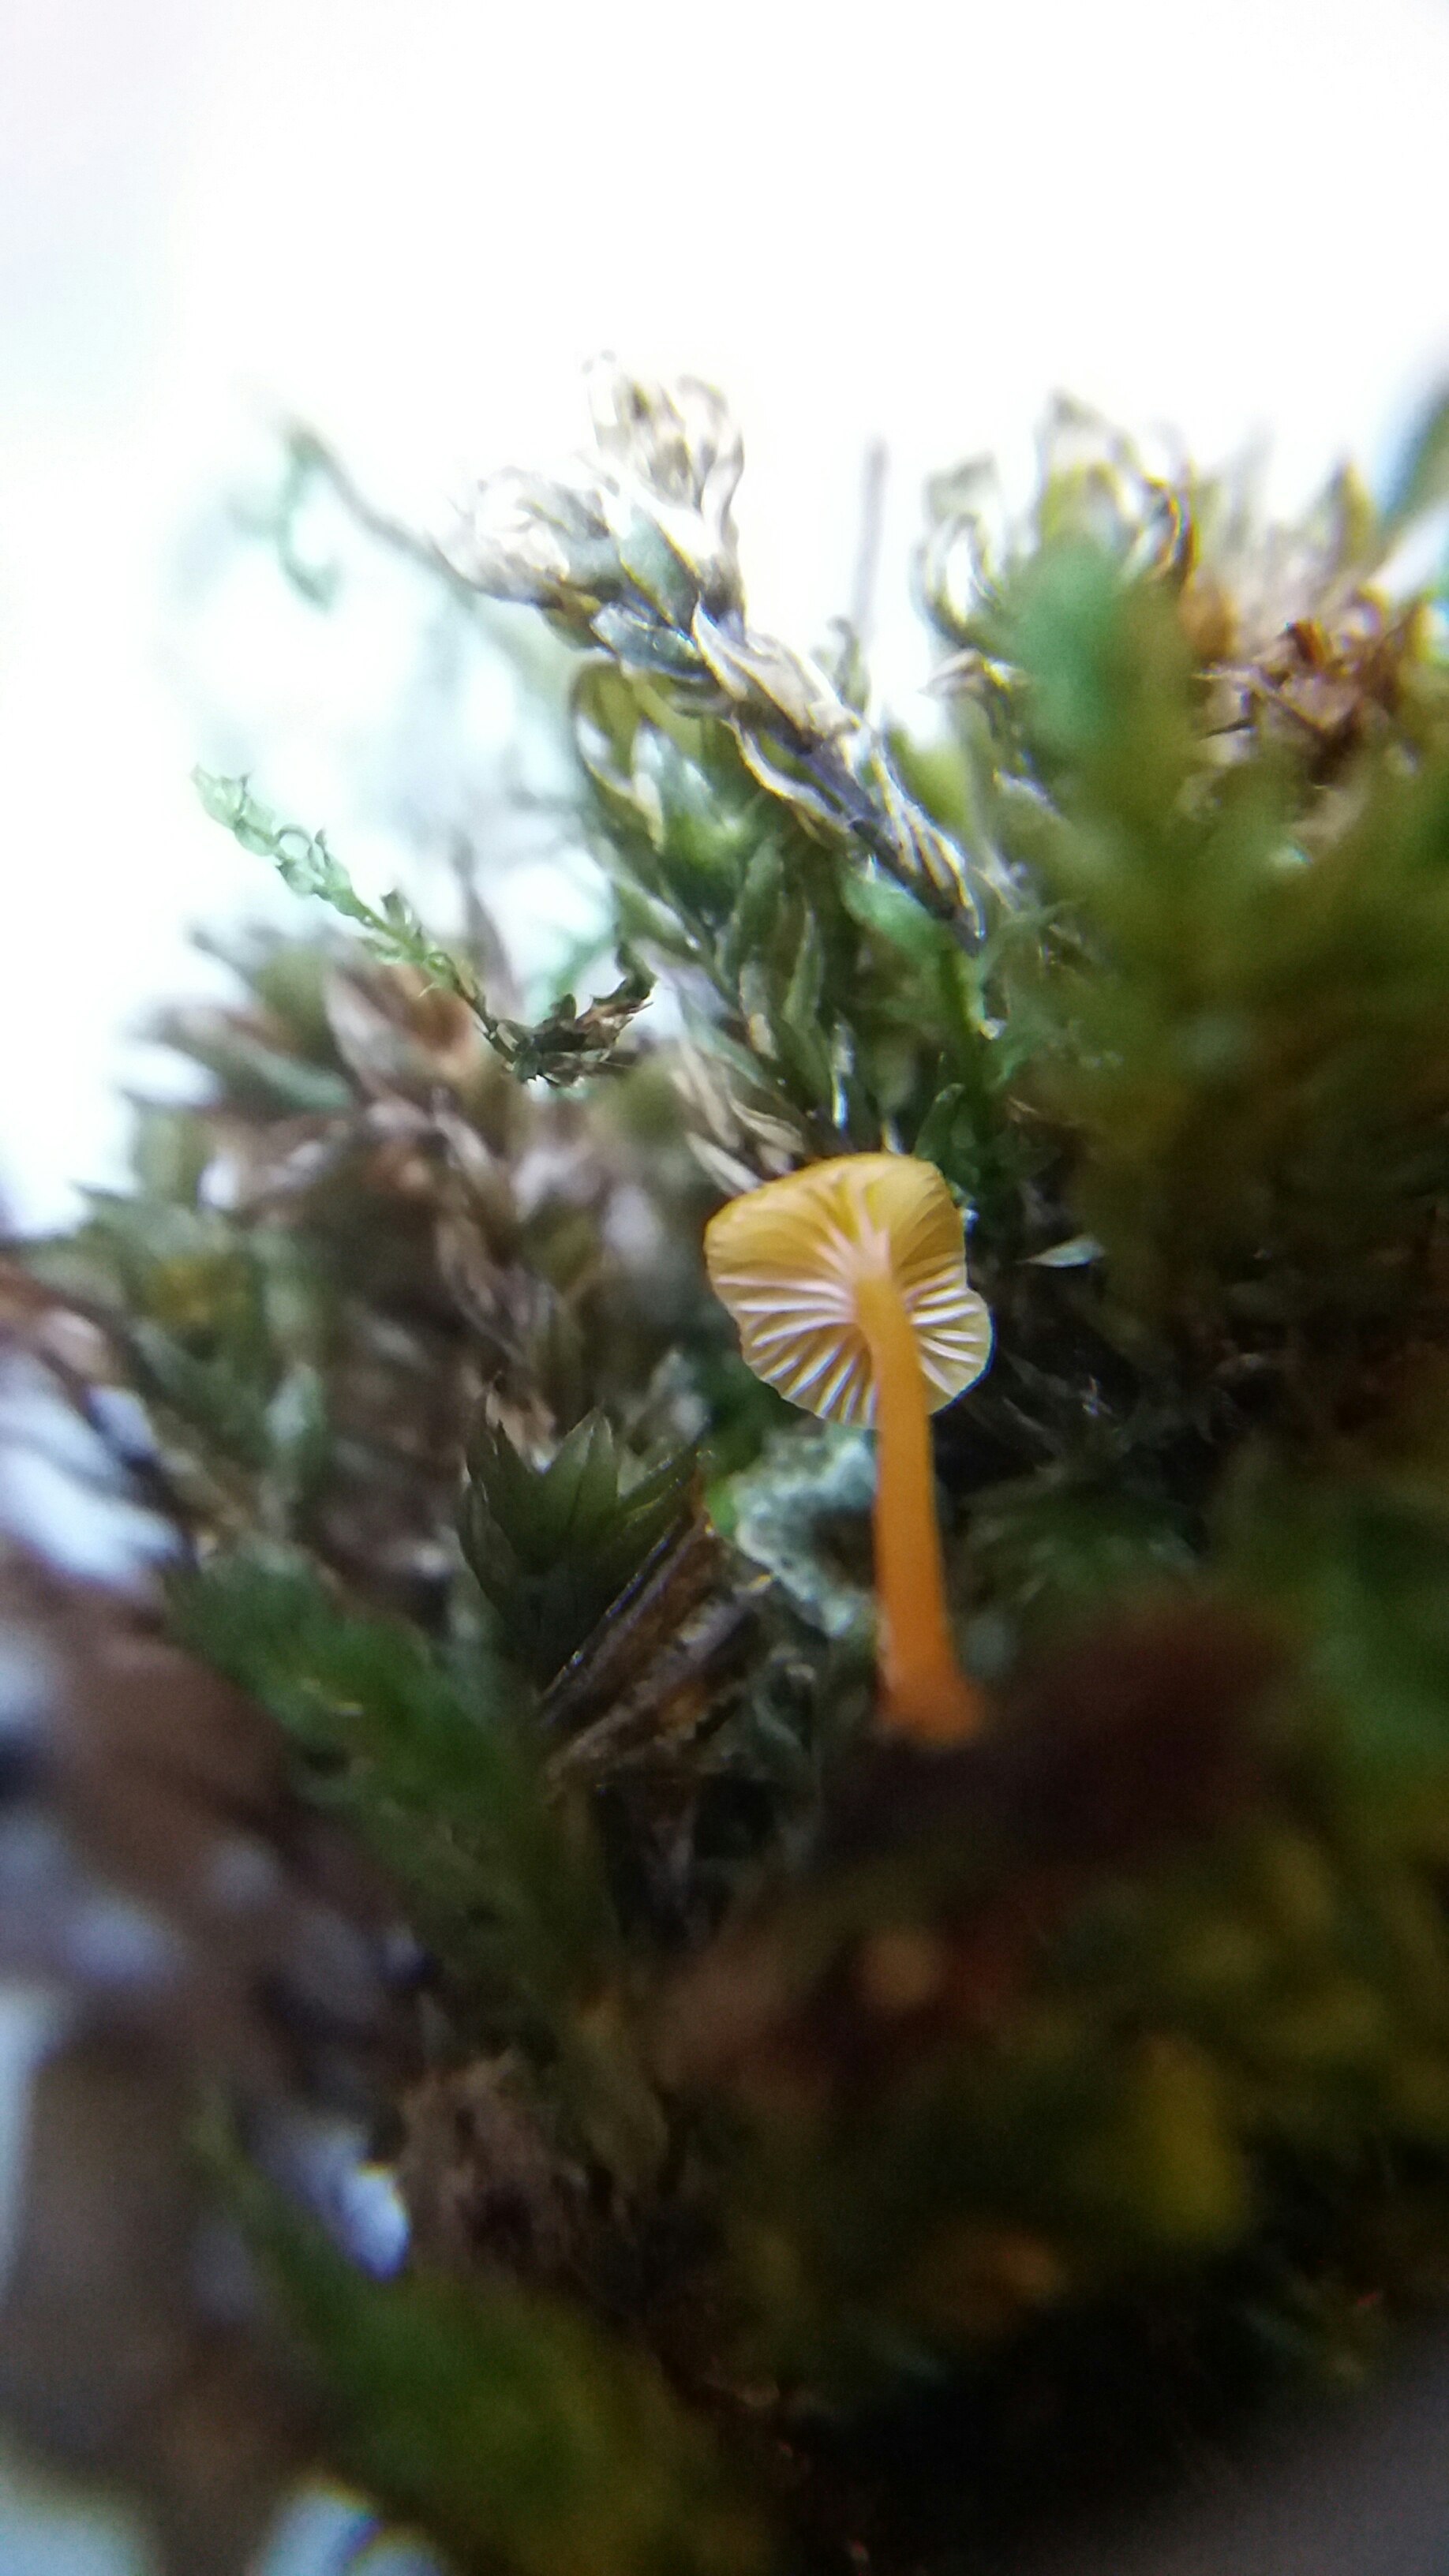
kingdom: Fungi
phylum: Basidiomycota
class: Agaricomycetes
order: Hymenochaetales
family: Rickenellaceae
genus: Rickenella
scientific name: Rickenella fibula
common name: orange mosnavlehat
